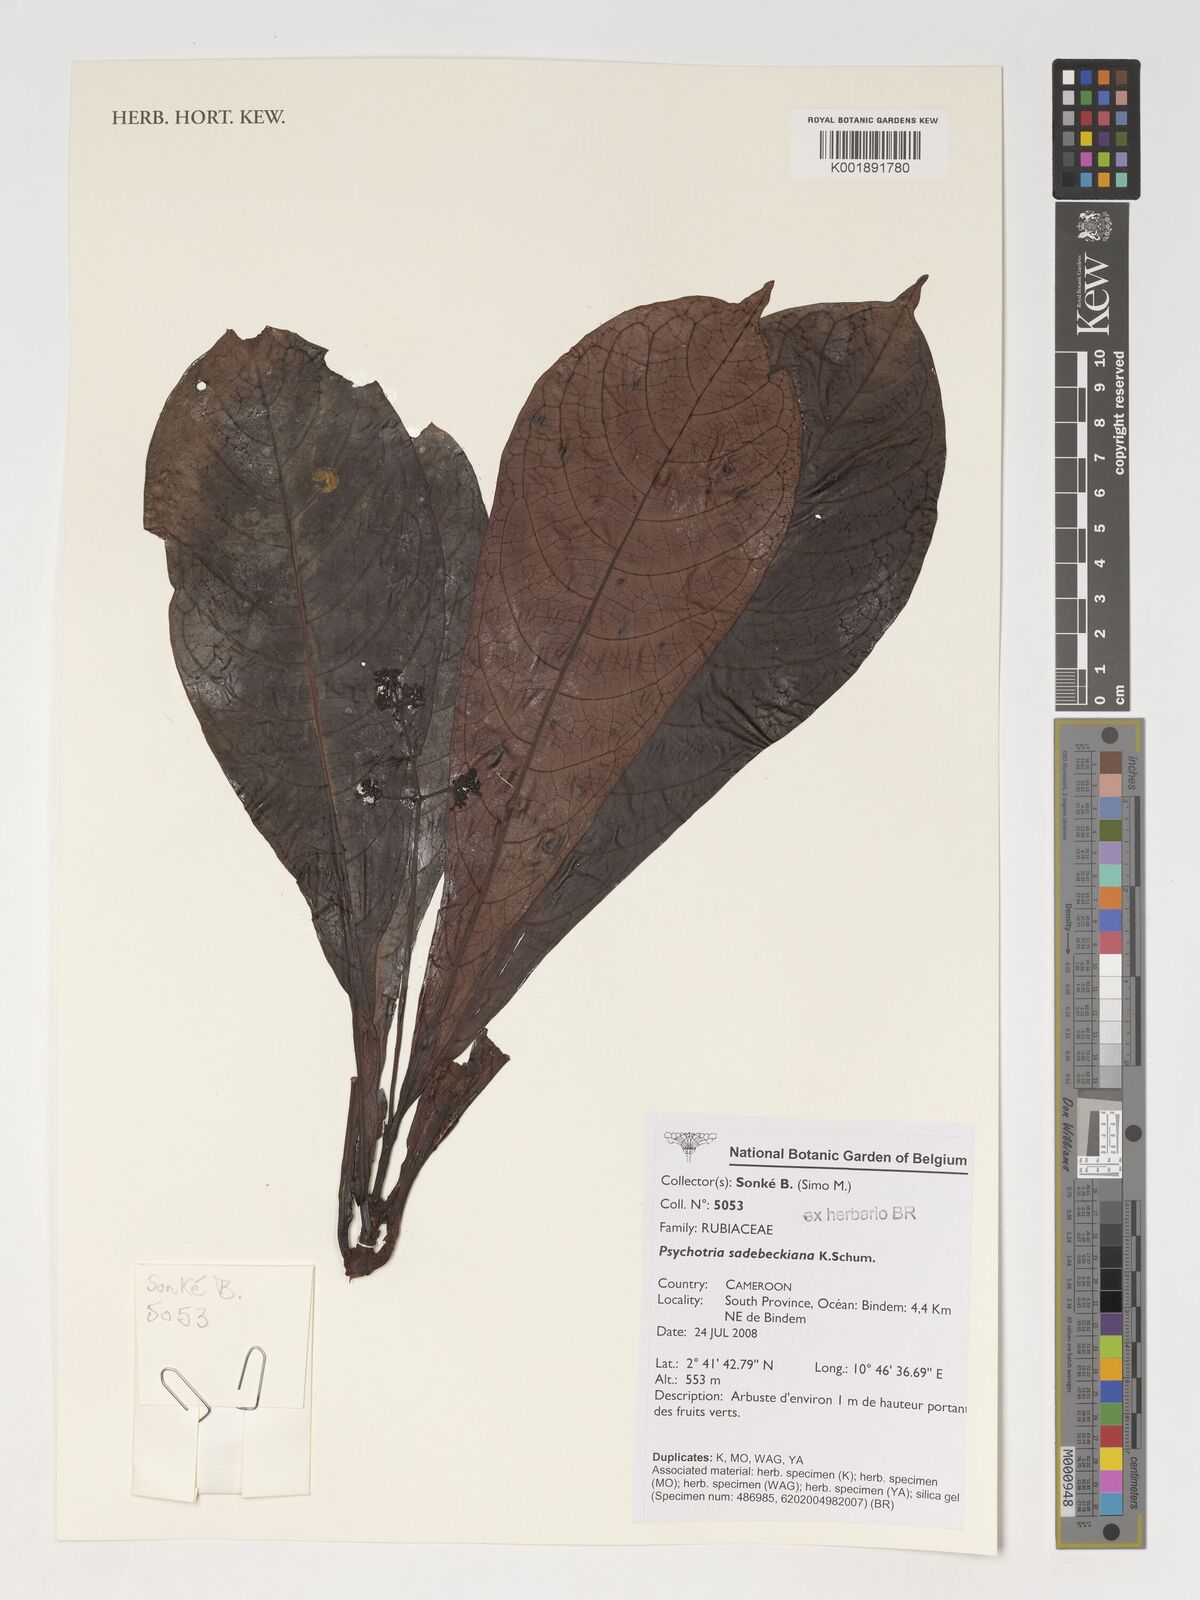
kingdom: Plantae
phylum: Tracheophyta
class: Magnoliopsida
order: Gentianales
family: Rubiaceae
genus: Psychotria
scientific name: Psychotria sadebeckiana
